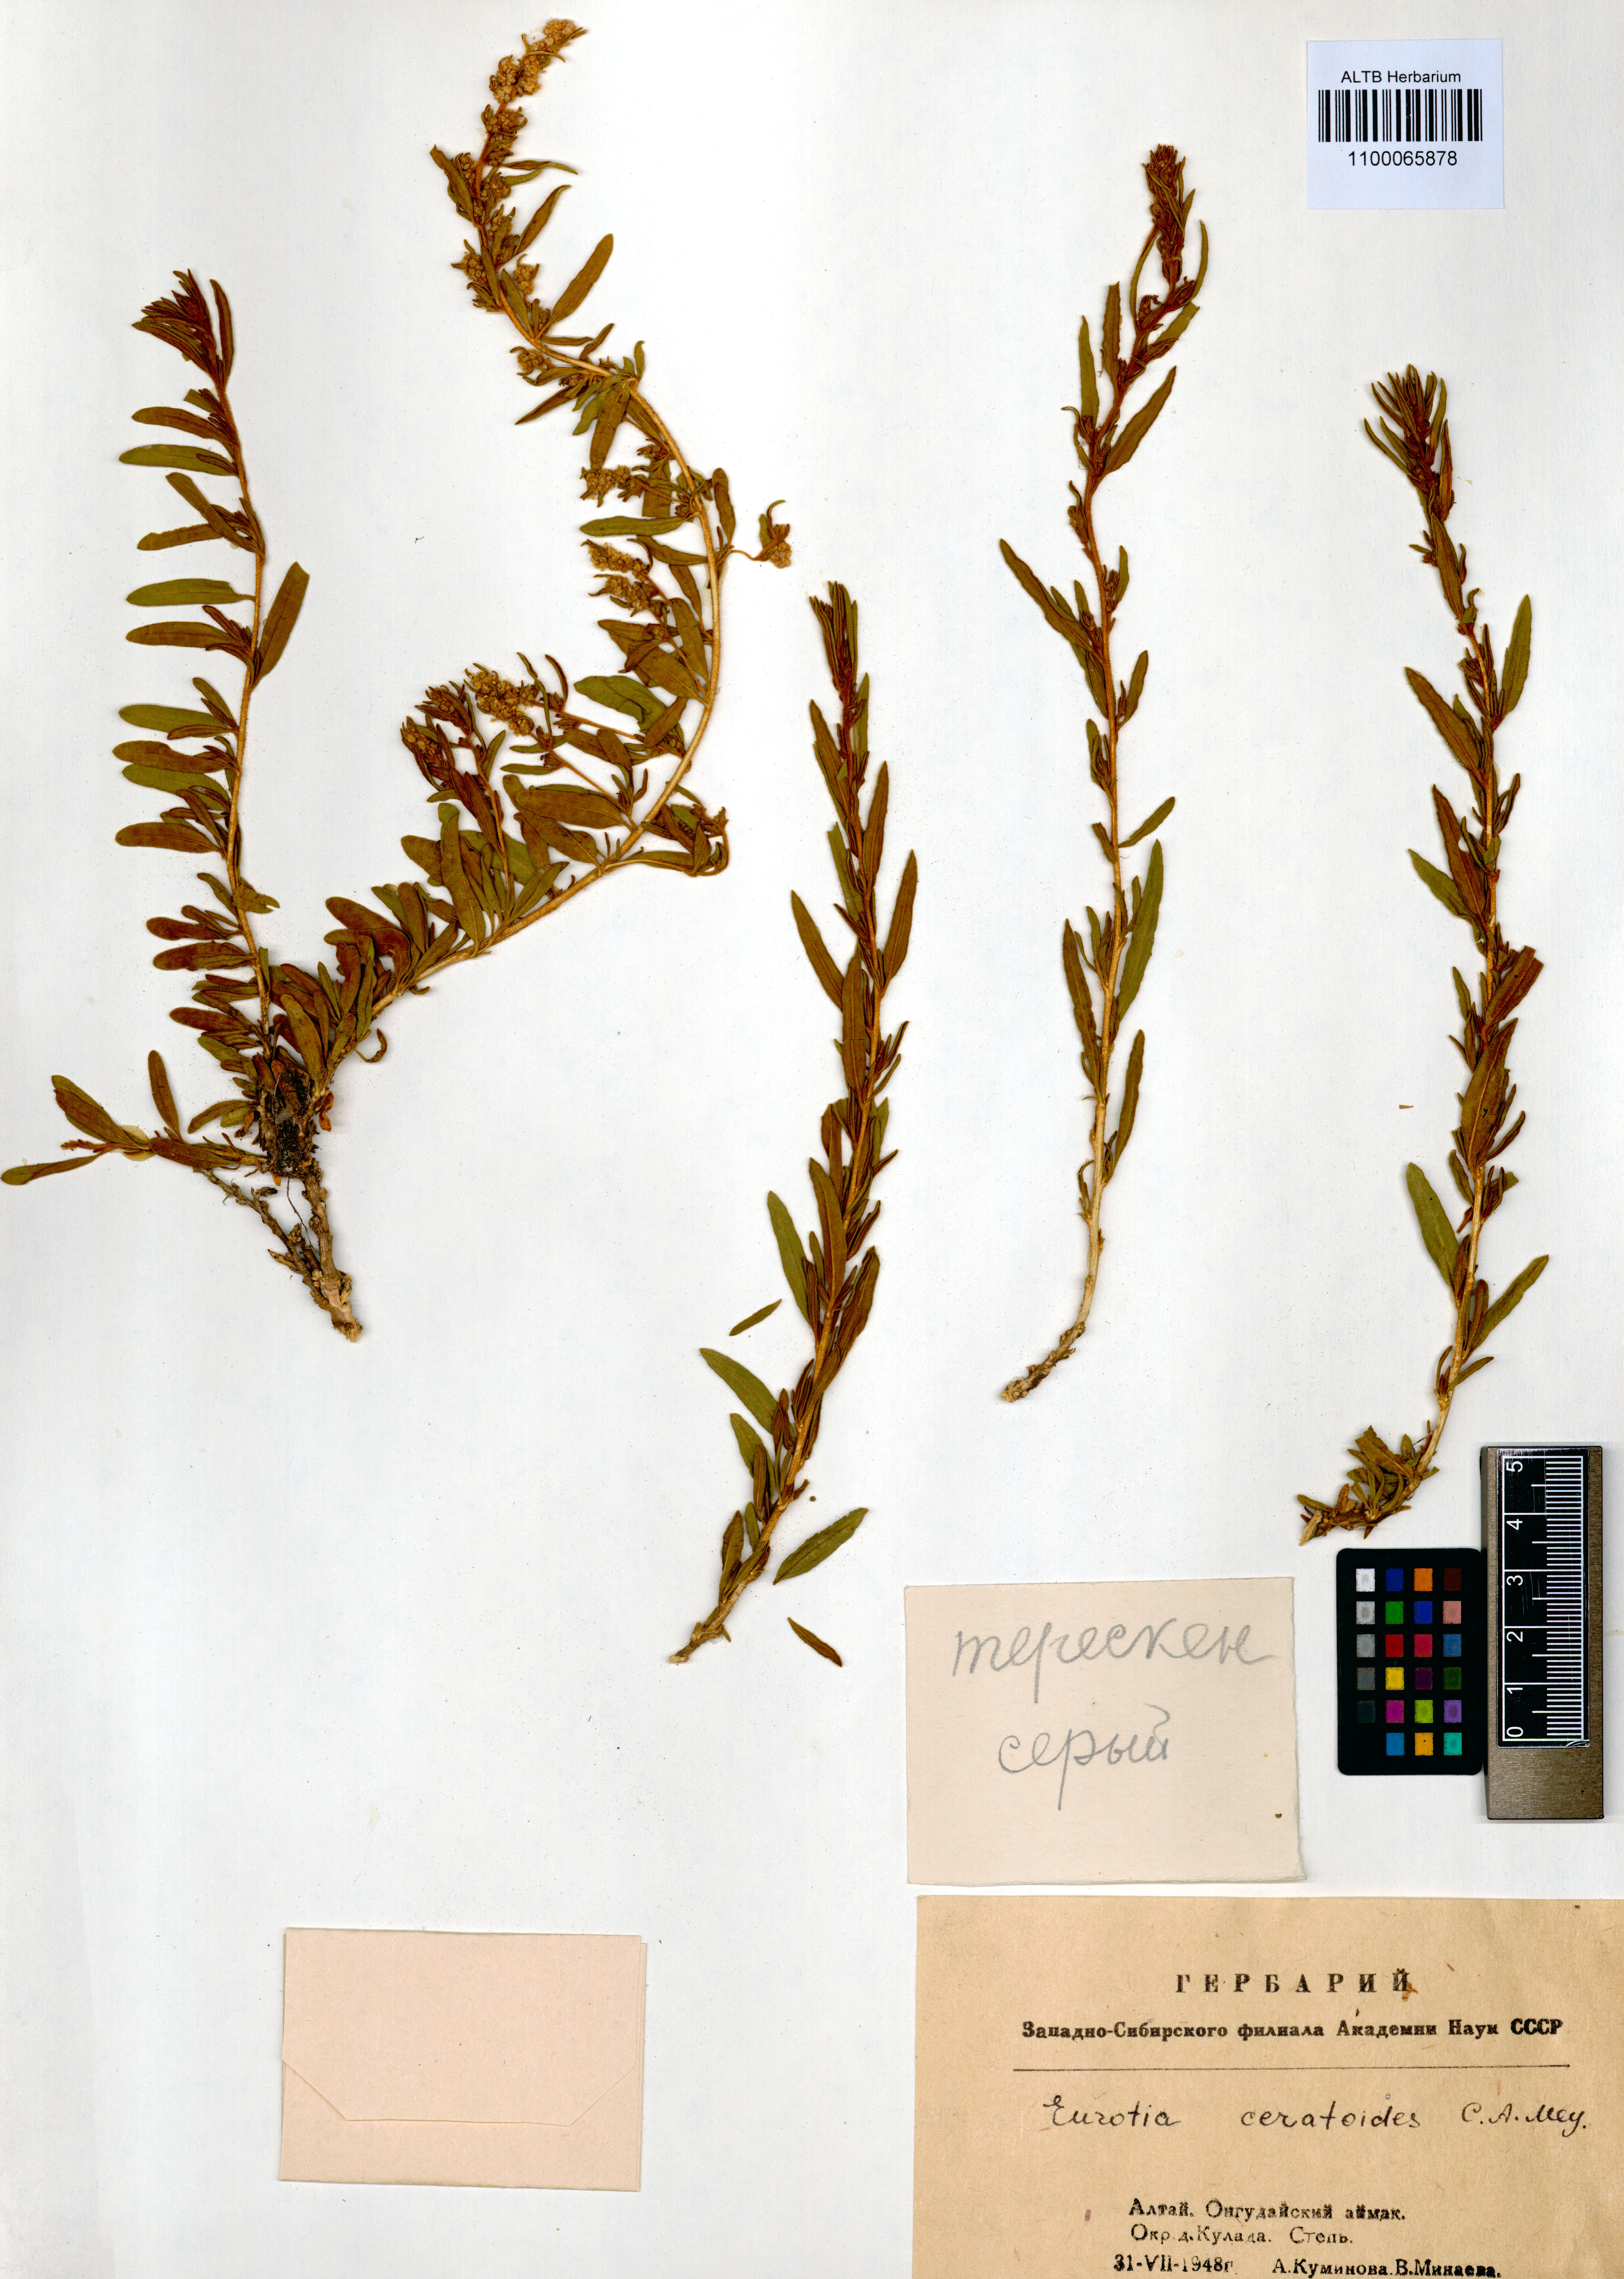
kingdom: Plantae
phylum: Tracheophyta
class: Magnoliopsida
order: Caryophyllales
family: Amaranthaceae
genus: Krascheninnikovia
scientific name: Krascheninnikovia ceratoides
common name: Pamirian winterfat
